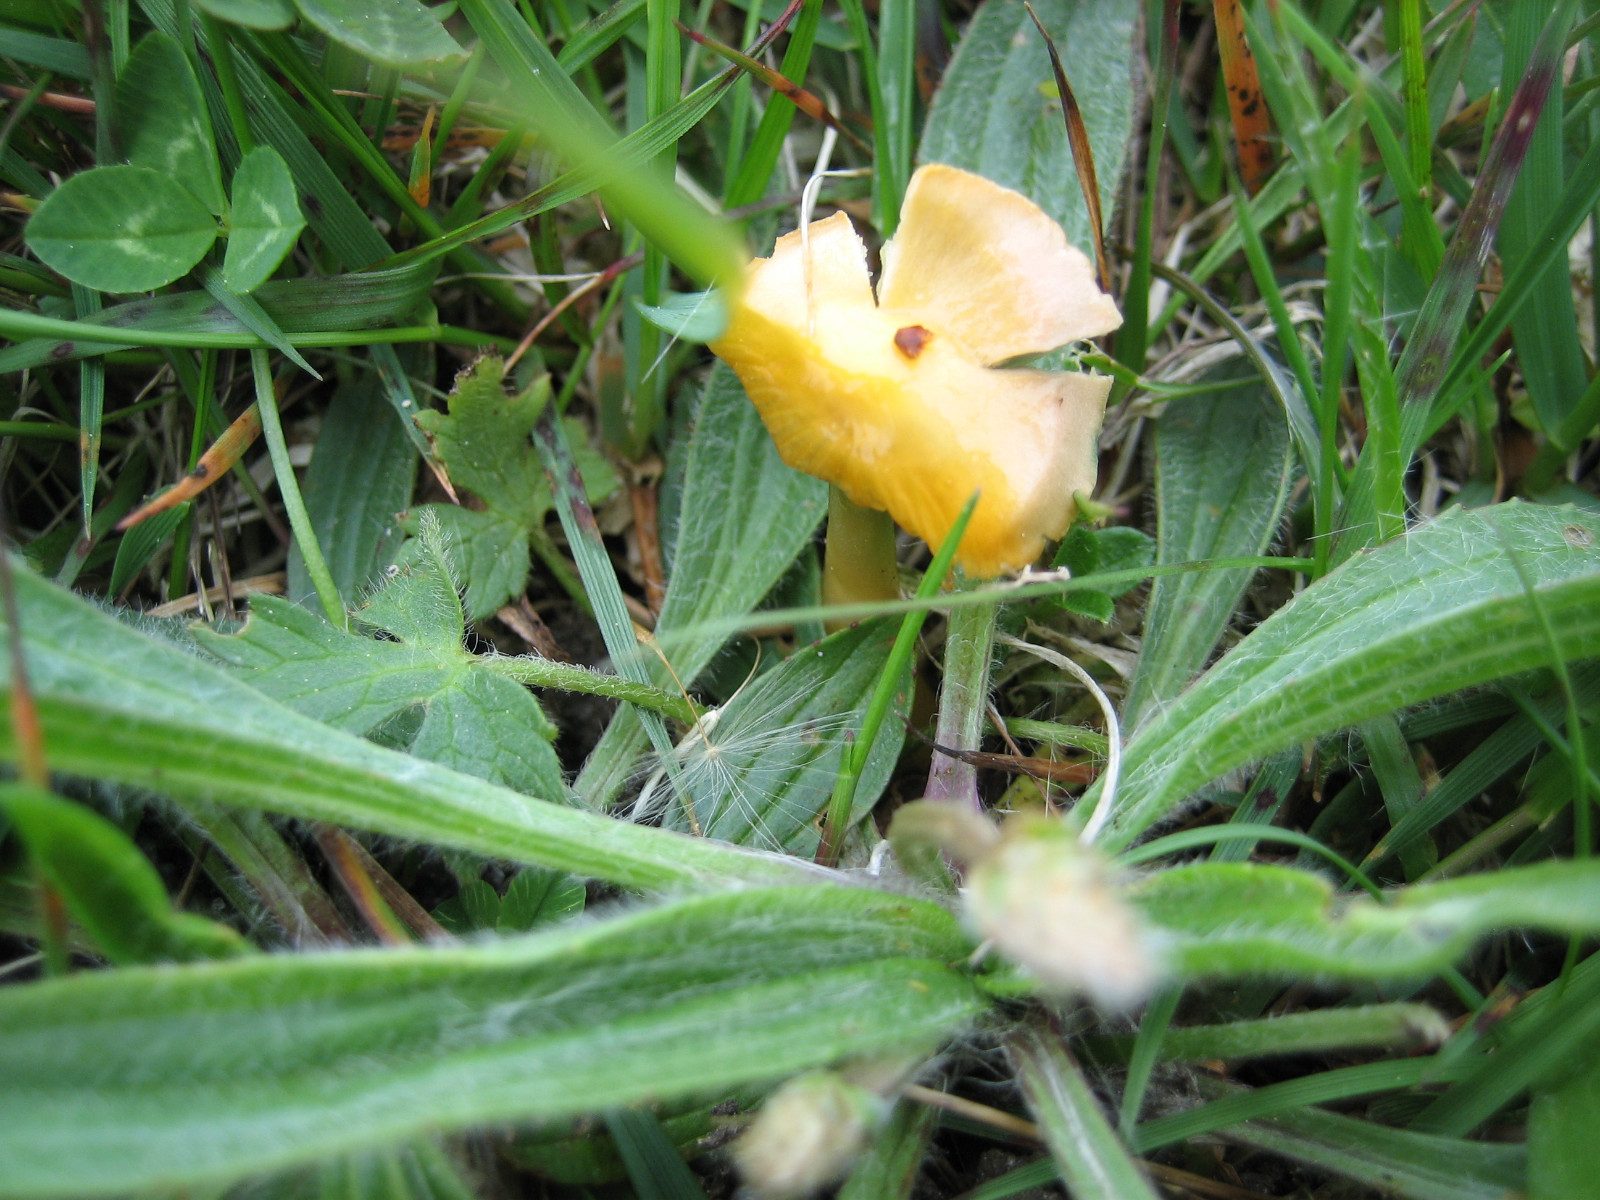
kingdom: Fungi
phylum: Basidiomycota
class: Agaricomycetes
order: Agaricales
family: Hygrophoraceae
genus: Gliophorus
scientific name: Gliophorus psittacinus
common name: papegøje-vokshat
